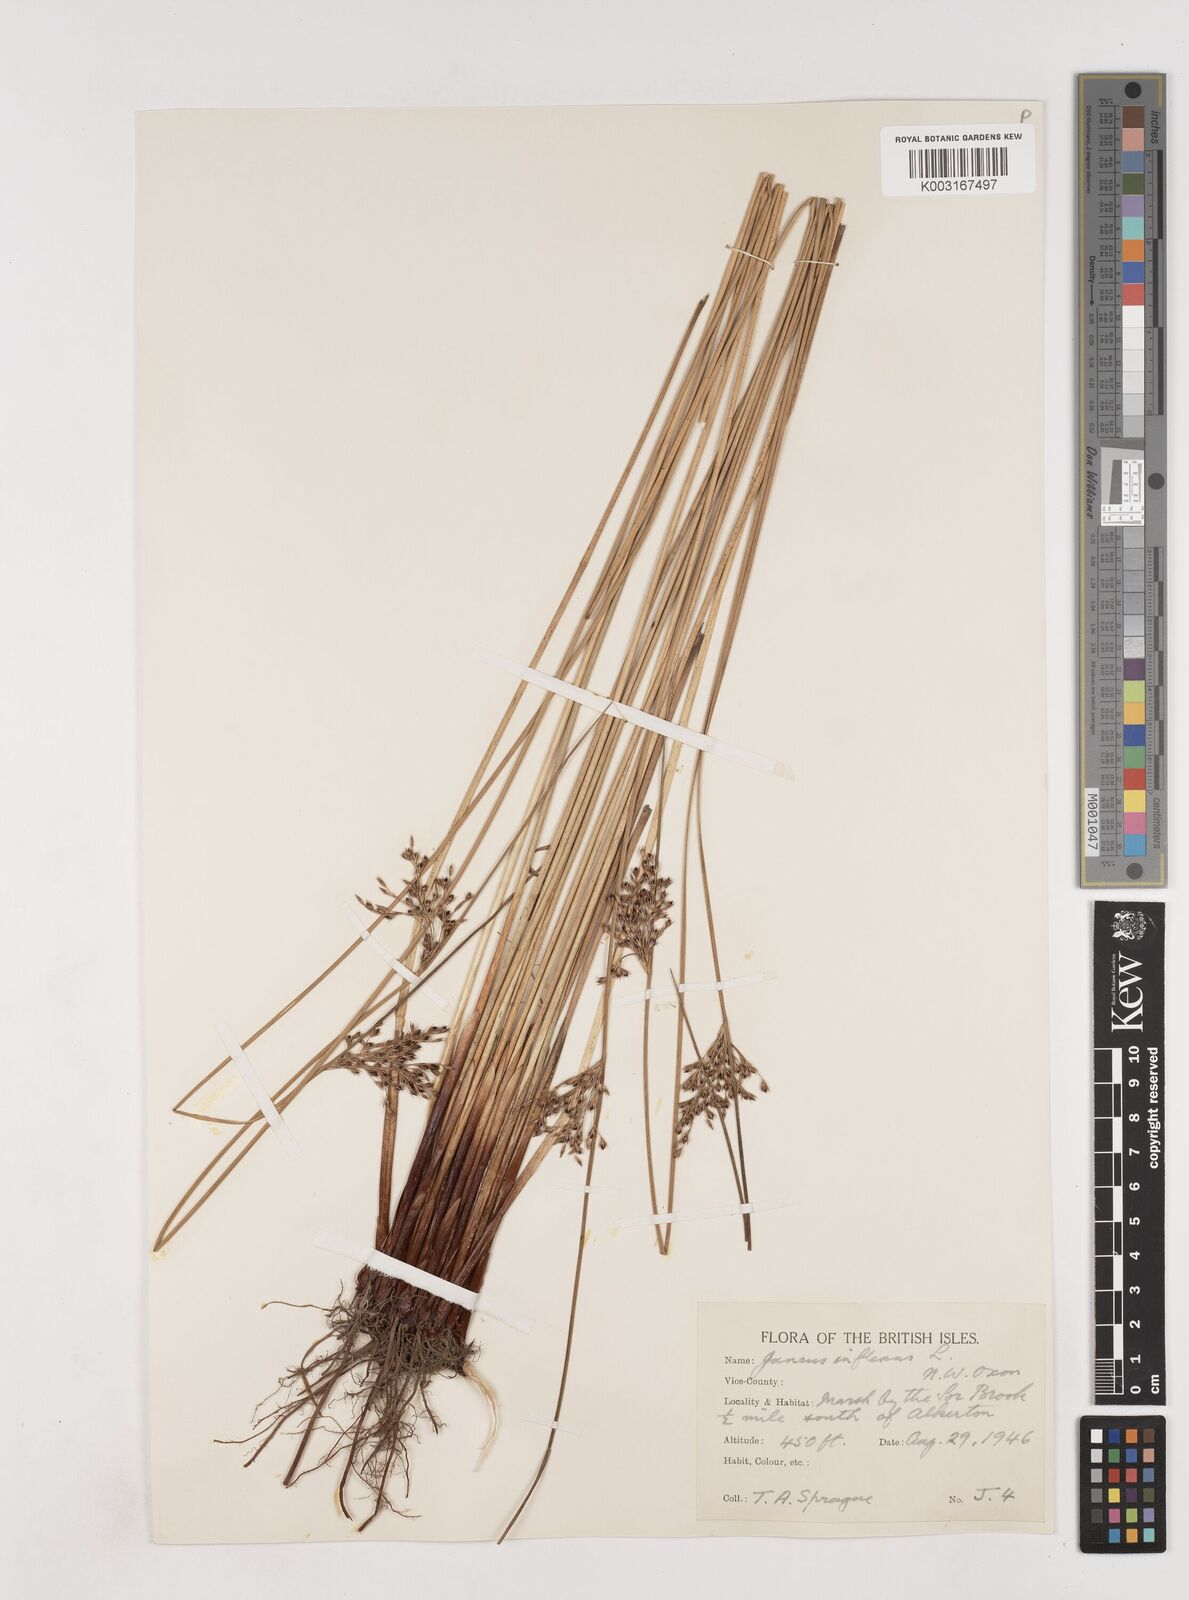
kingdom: Plantae
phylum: Tracheophyta
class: Liliopsida
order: Poales
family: Juncaceae
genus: Juncus
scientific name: Juncus inflexus
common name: Hard rush
